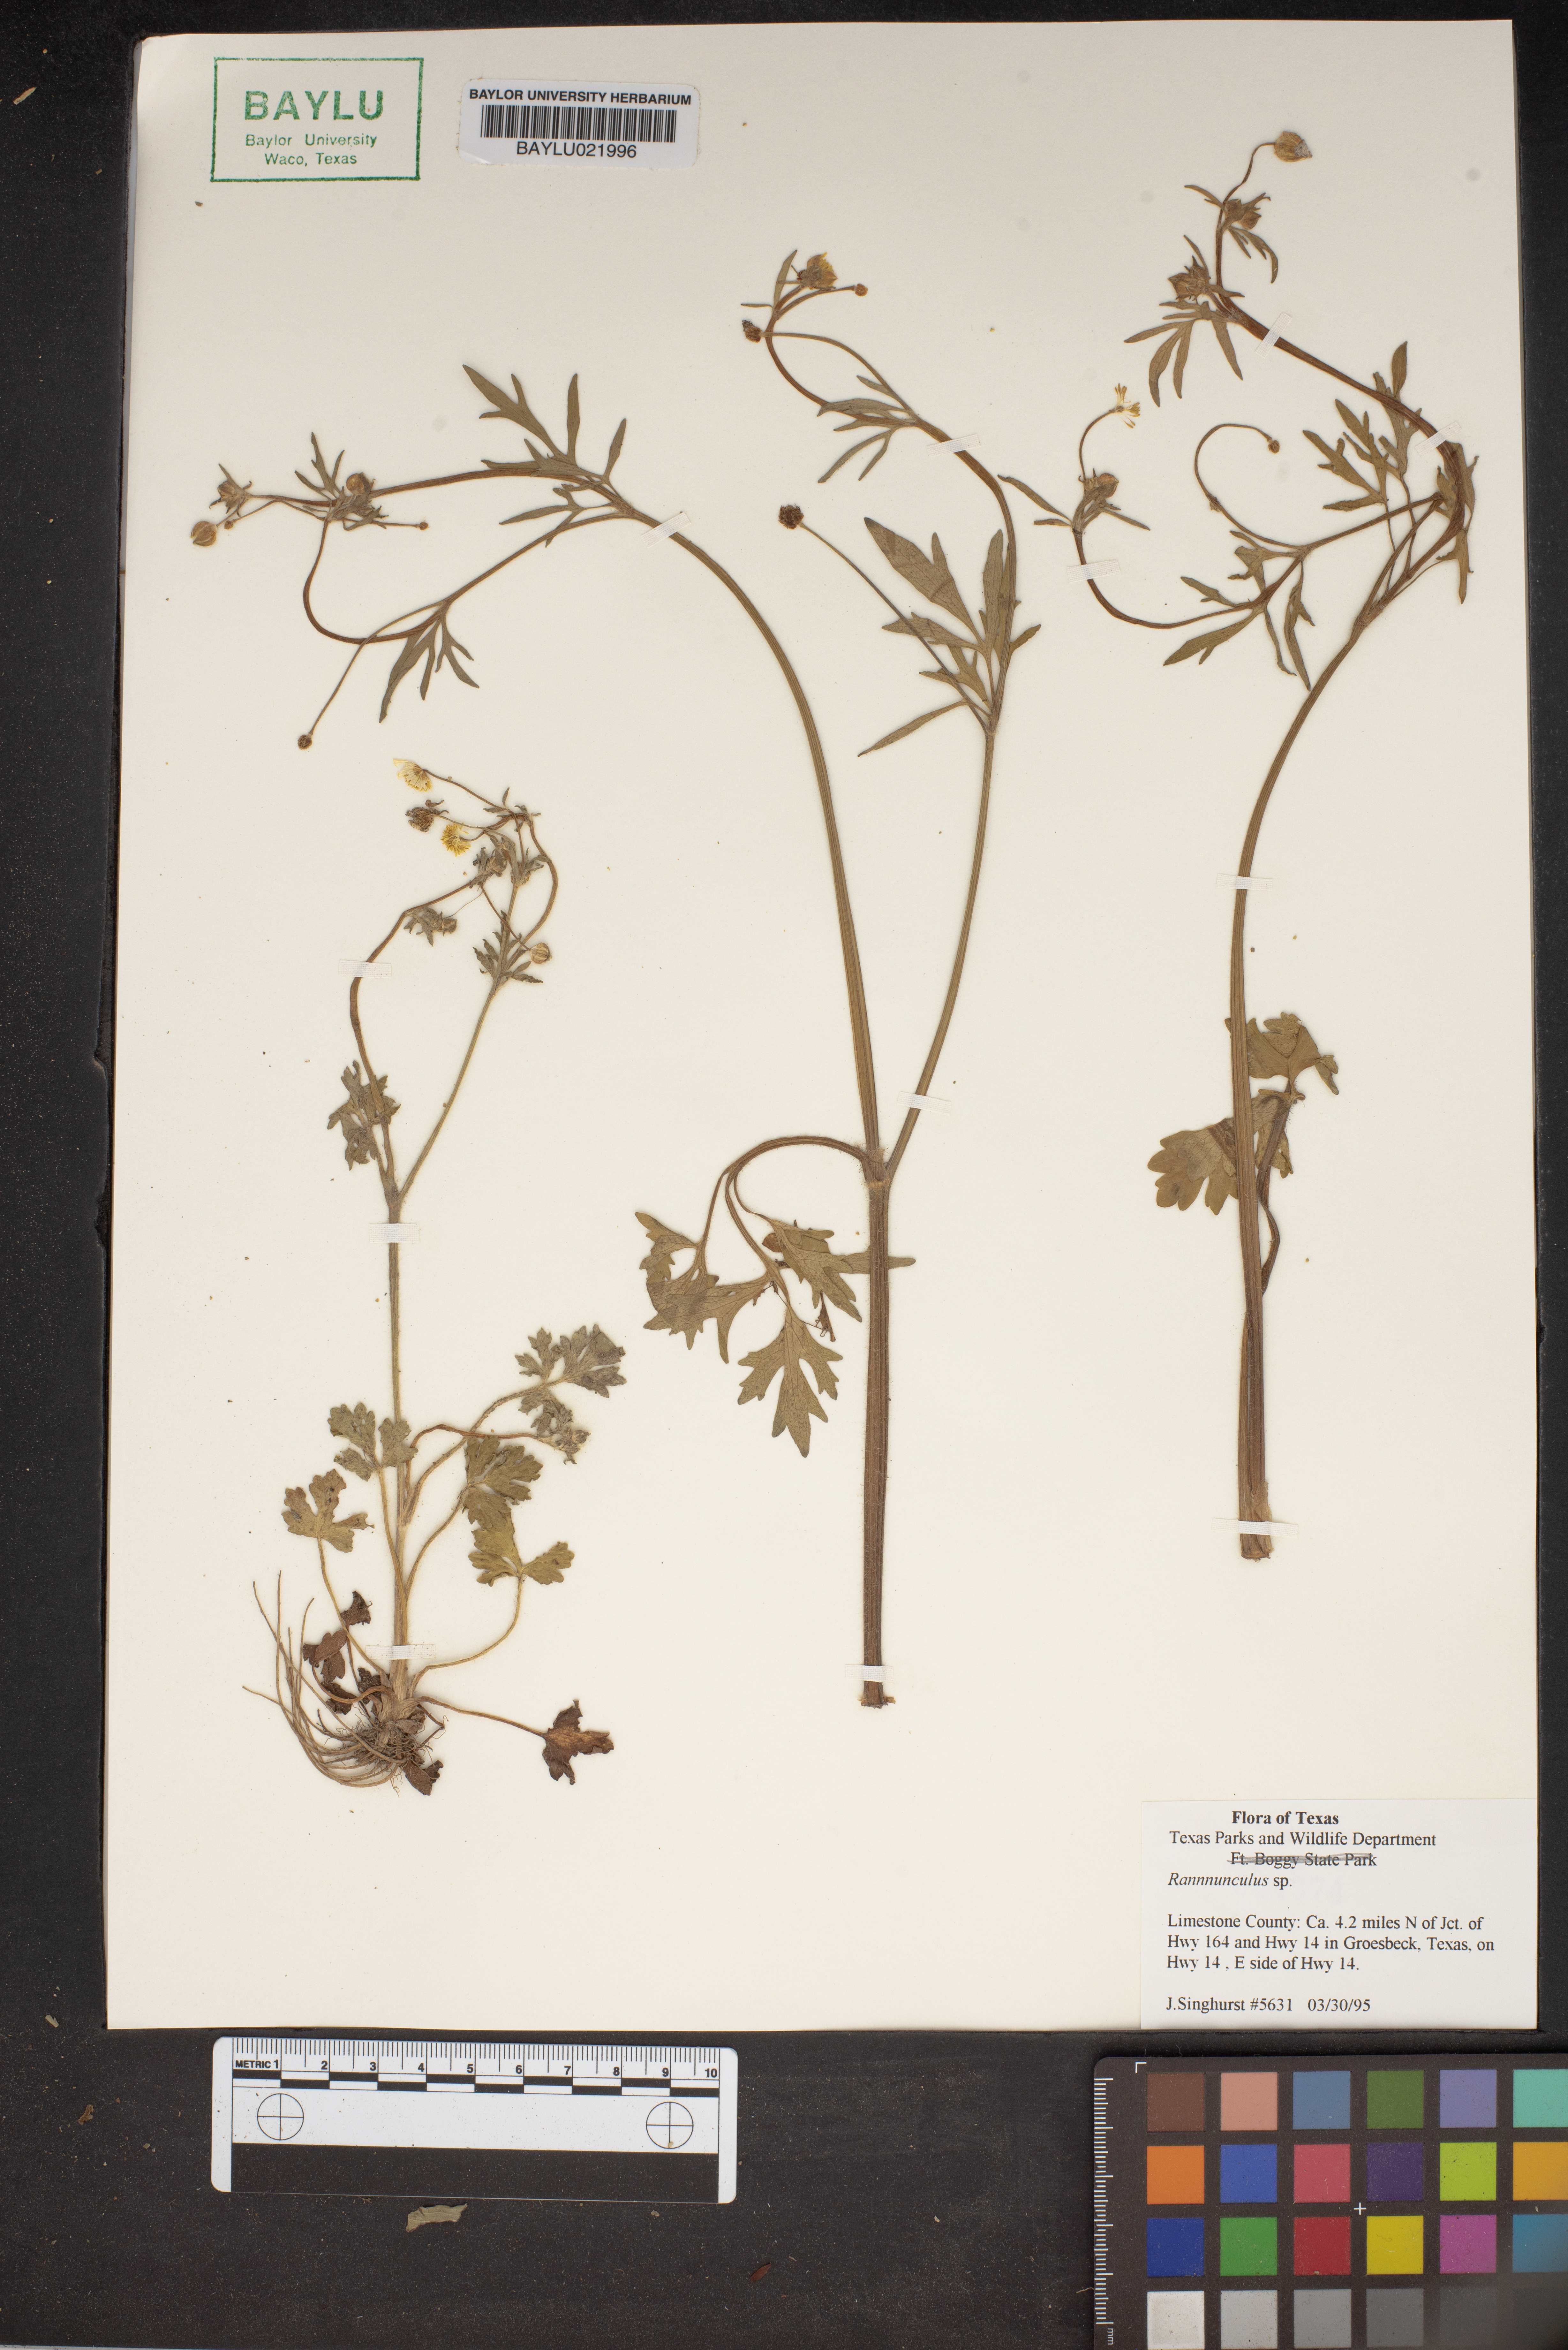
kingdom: Plantae
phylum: Tracheophyta
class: Magnoliopsida
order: Ranunculales
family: Ranunculaceae
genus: Ranunculus
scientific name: Ranunculus
